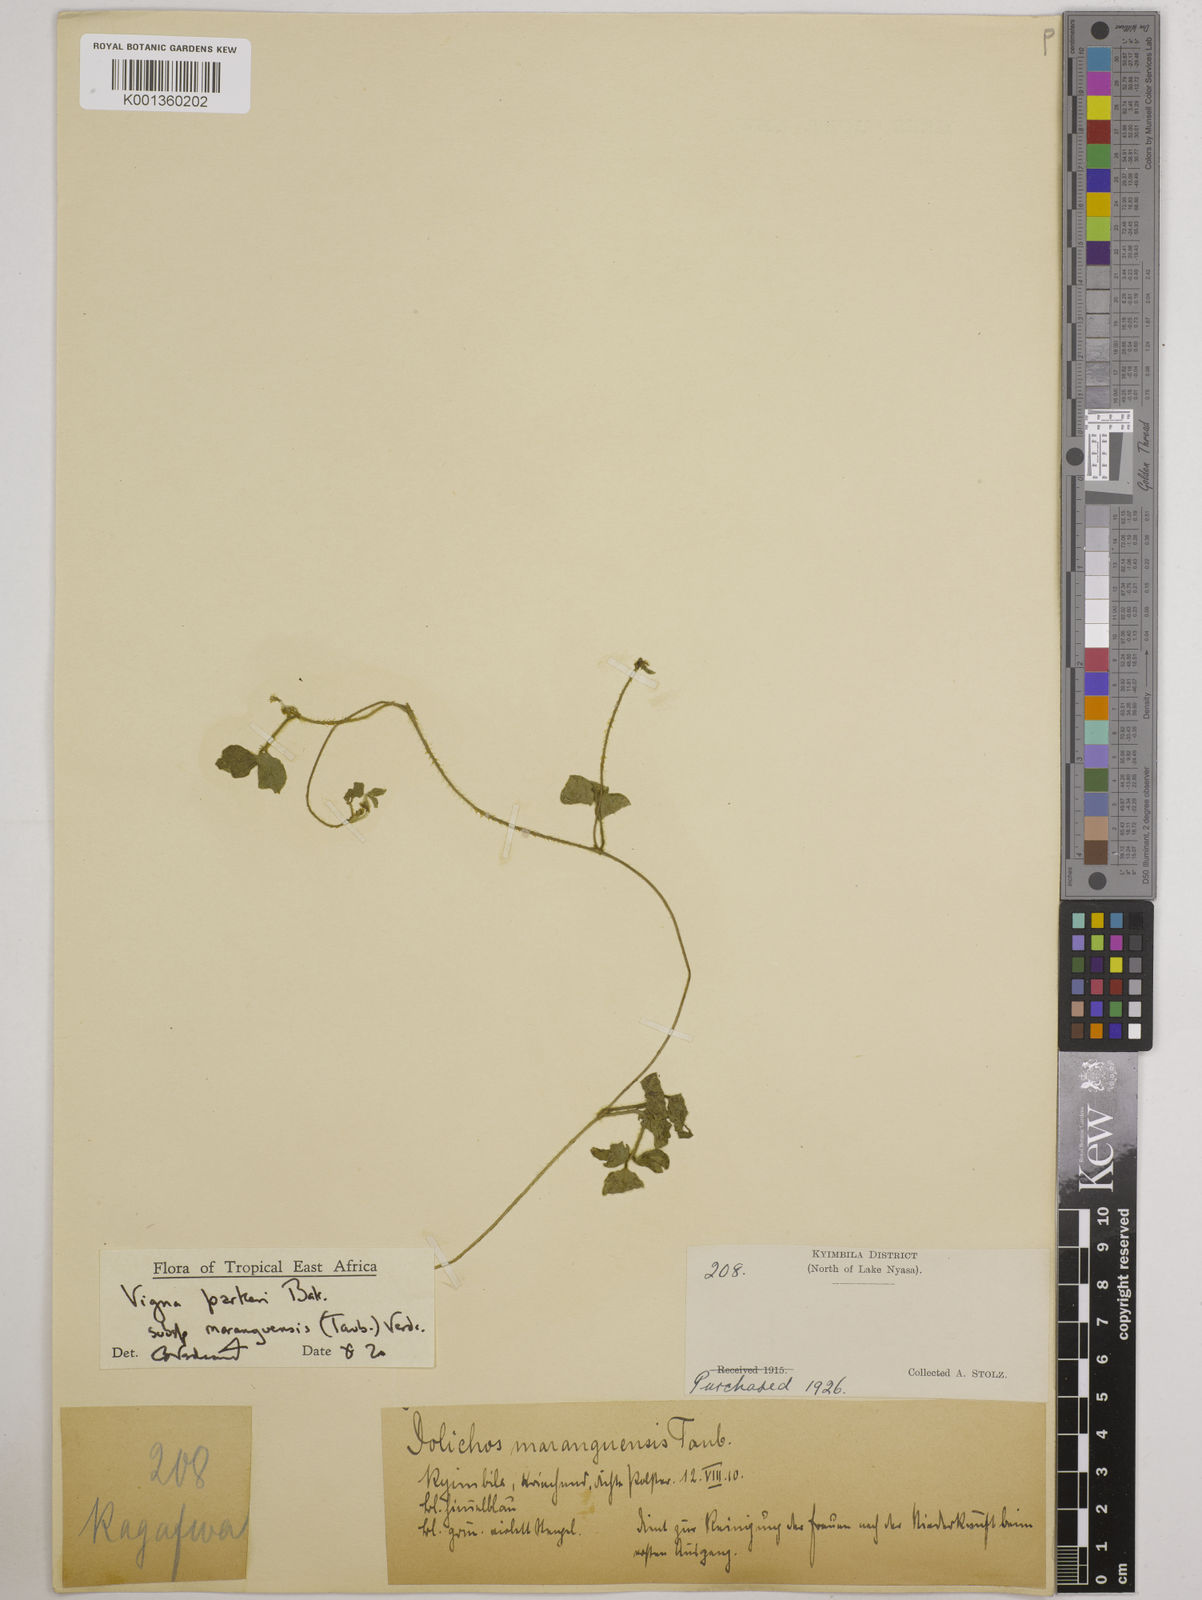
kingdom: Plantae
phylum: Tracheophyta
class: Magnoliopsida
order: Fabales
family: Fabaceae
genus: Vigna
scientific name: Vigna
